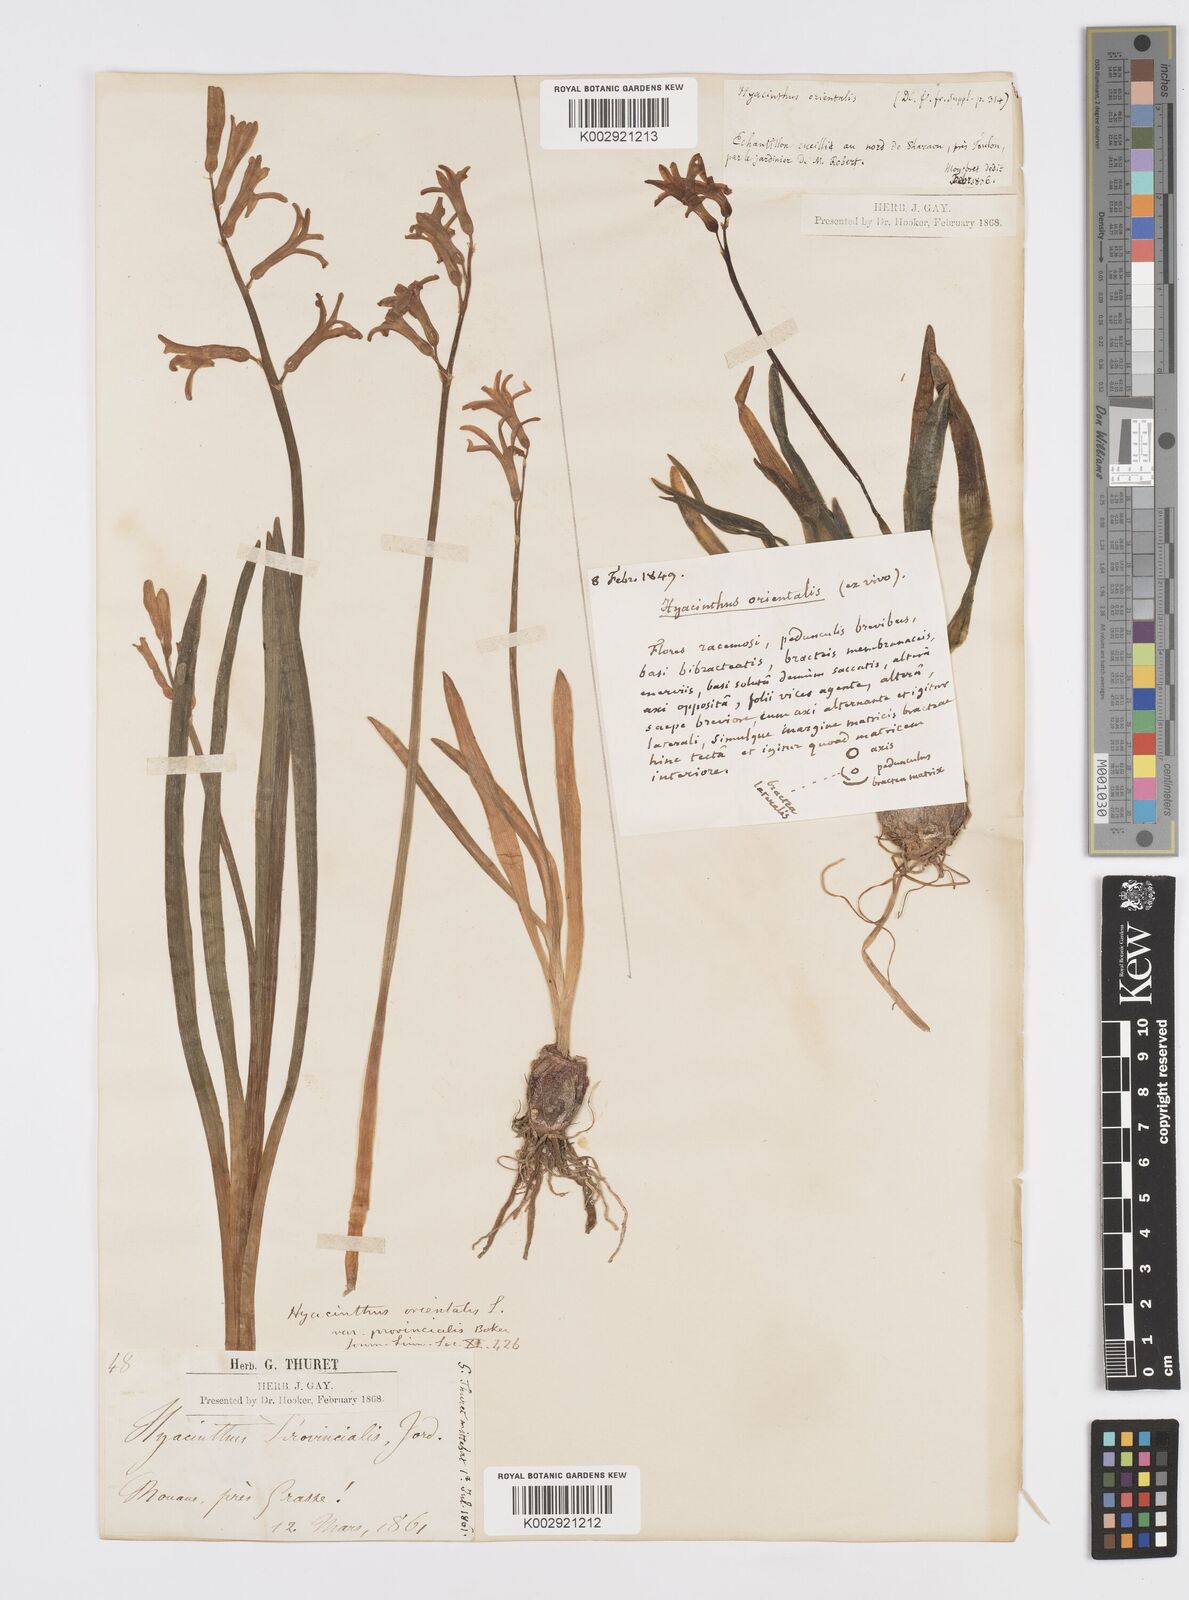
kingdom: Plantae
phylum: Tracheophyta
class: Liliopsida
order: Asparagales
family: Asparagaceae
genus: Hyacinthus
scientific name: Hyacinthus orientalis
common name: Hyacinth
